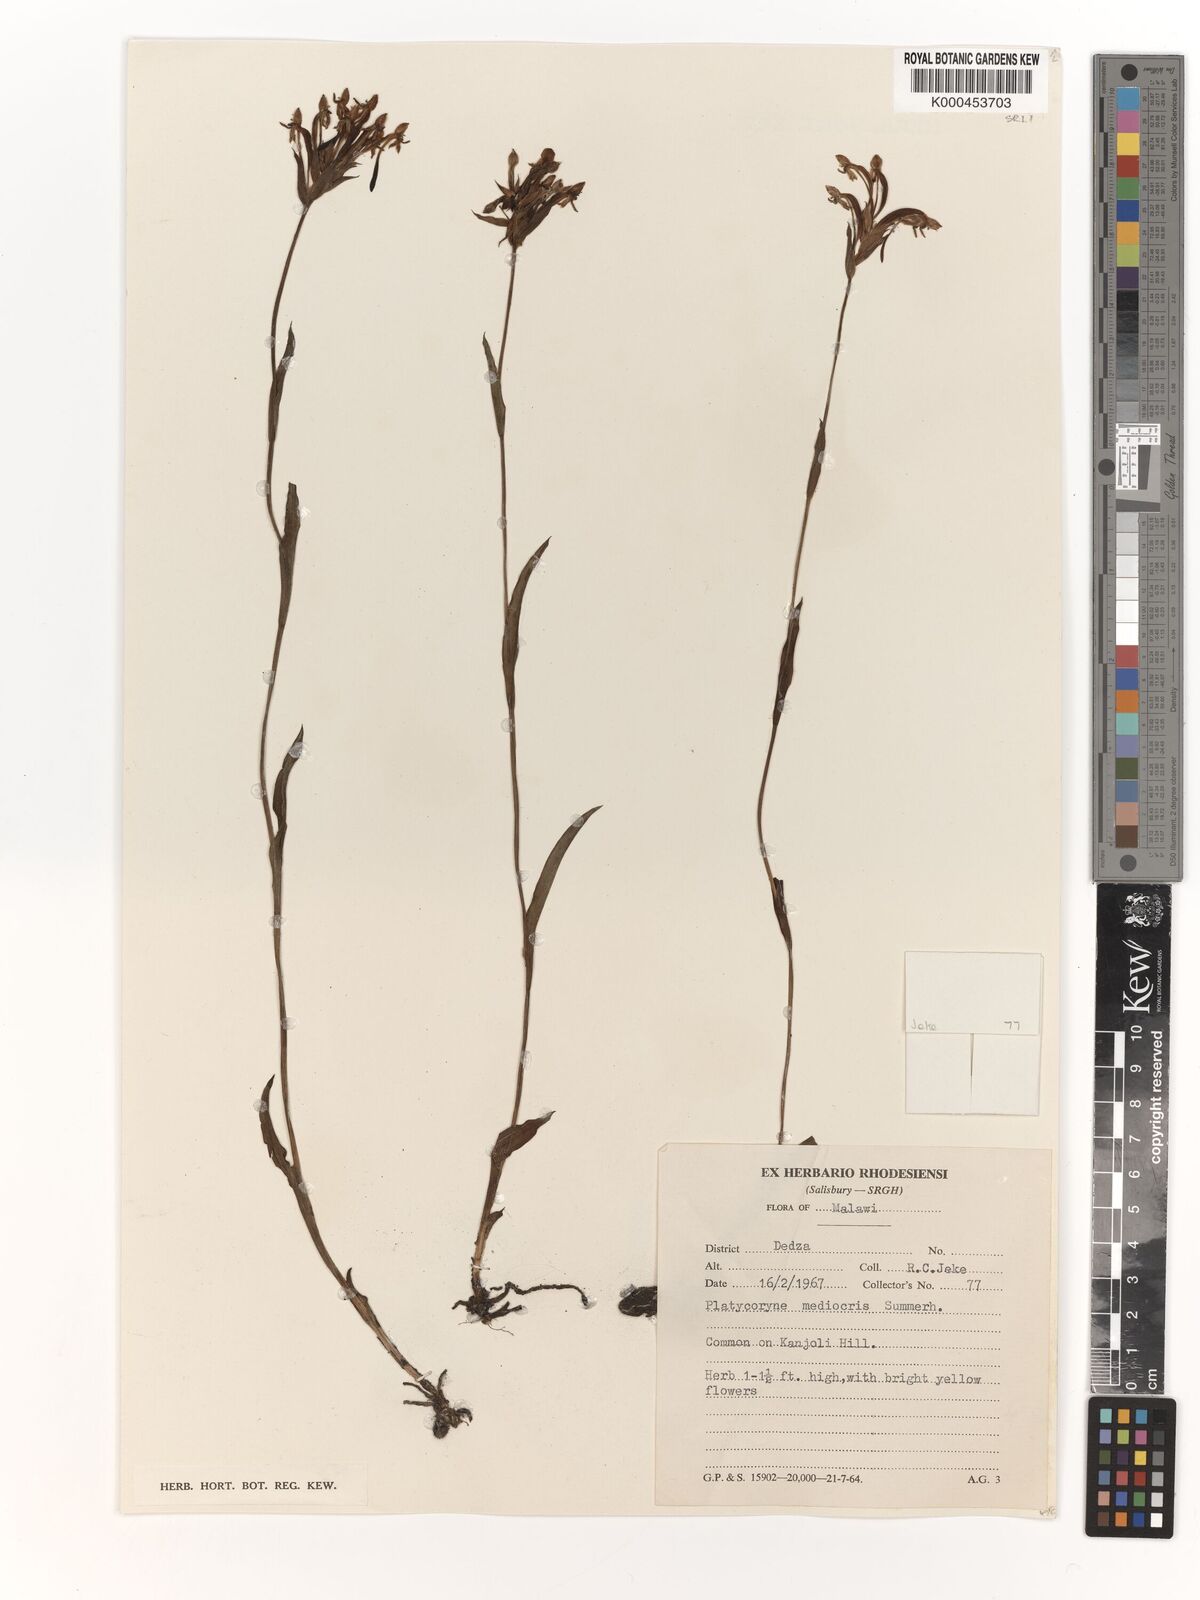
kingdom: Plantae
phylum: Tracheophyta
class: Liliopsida
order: Asparagales
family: Orchidaceae
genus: Platycoryne
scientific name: Platycoryne mediocris
